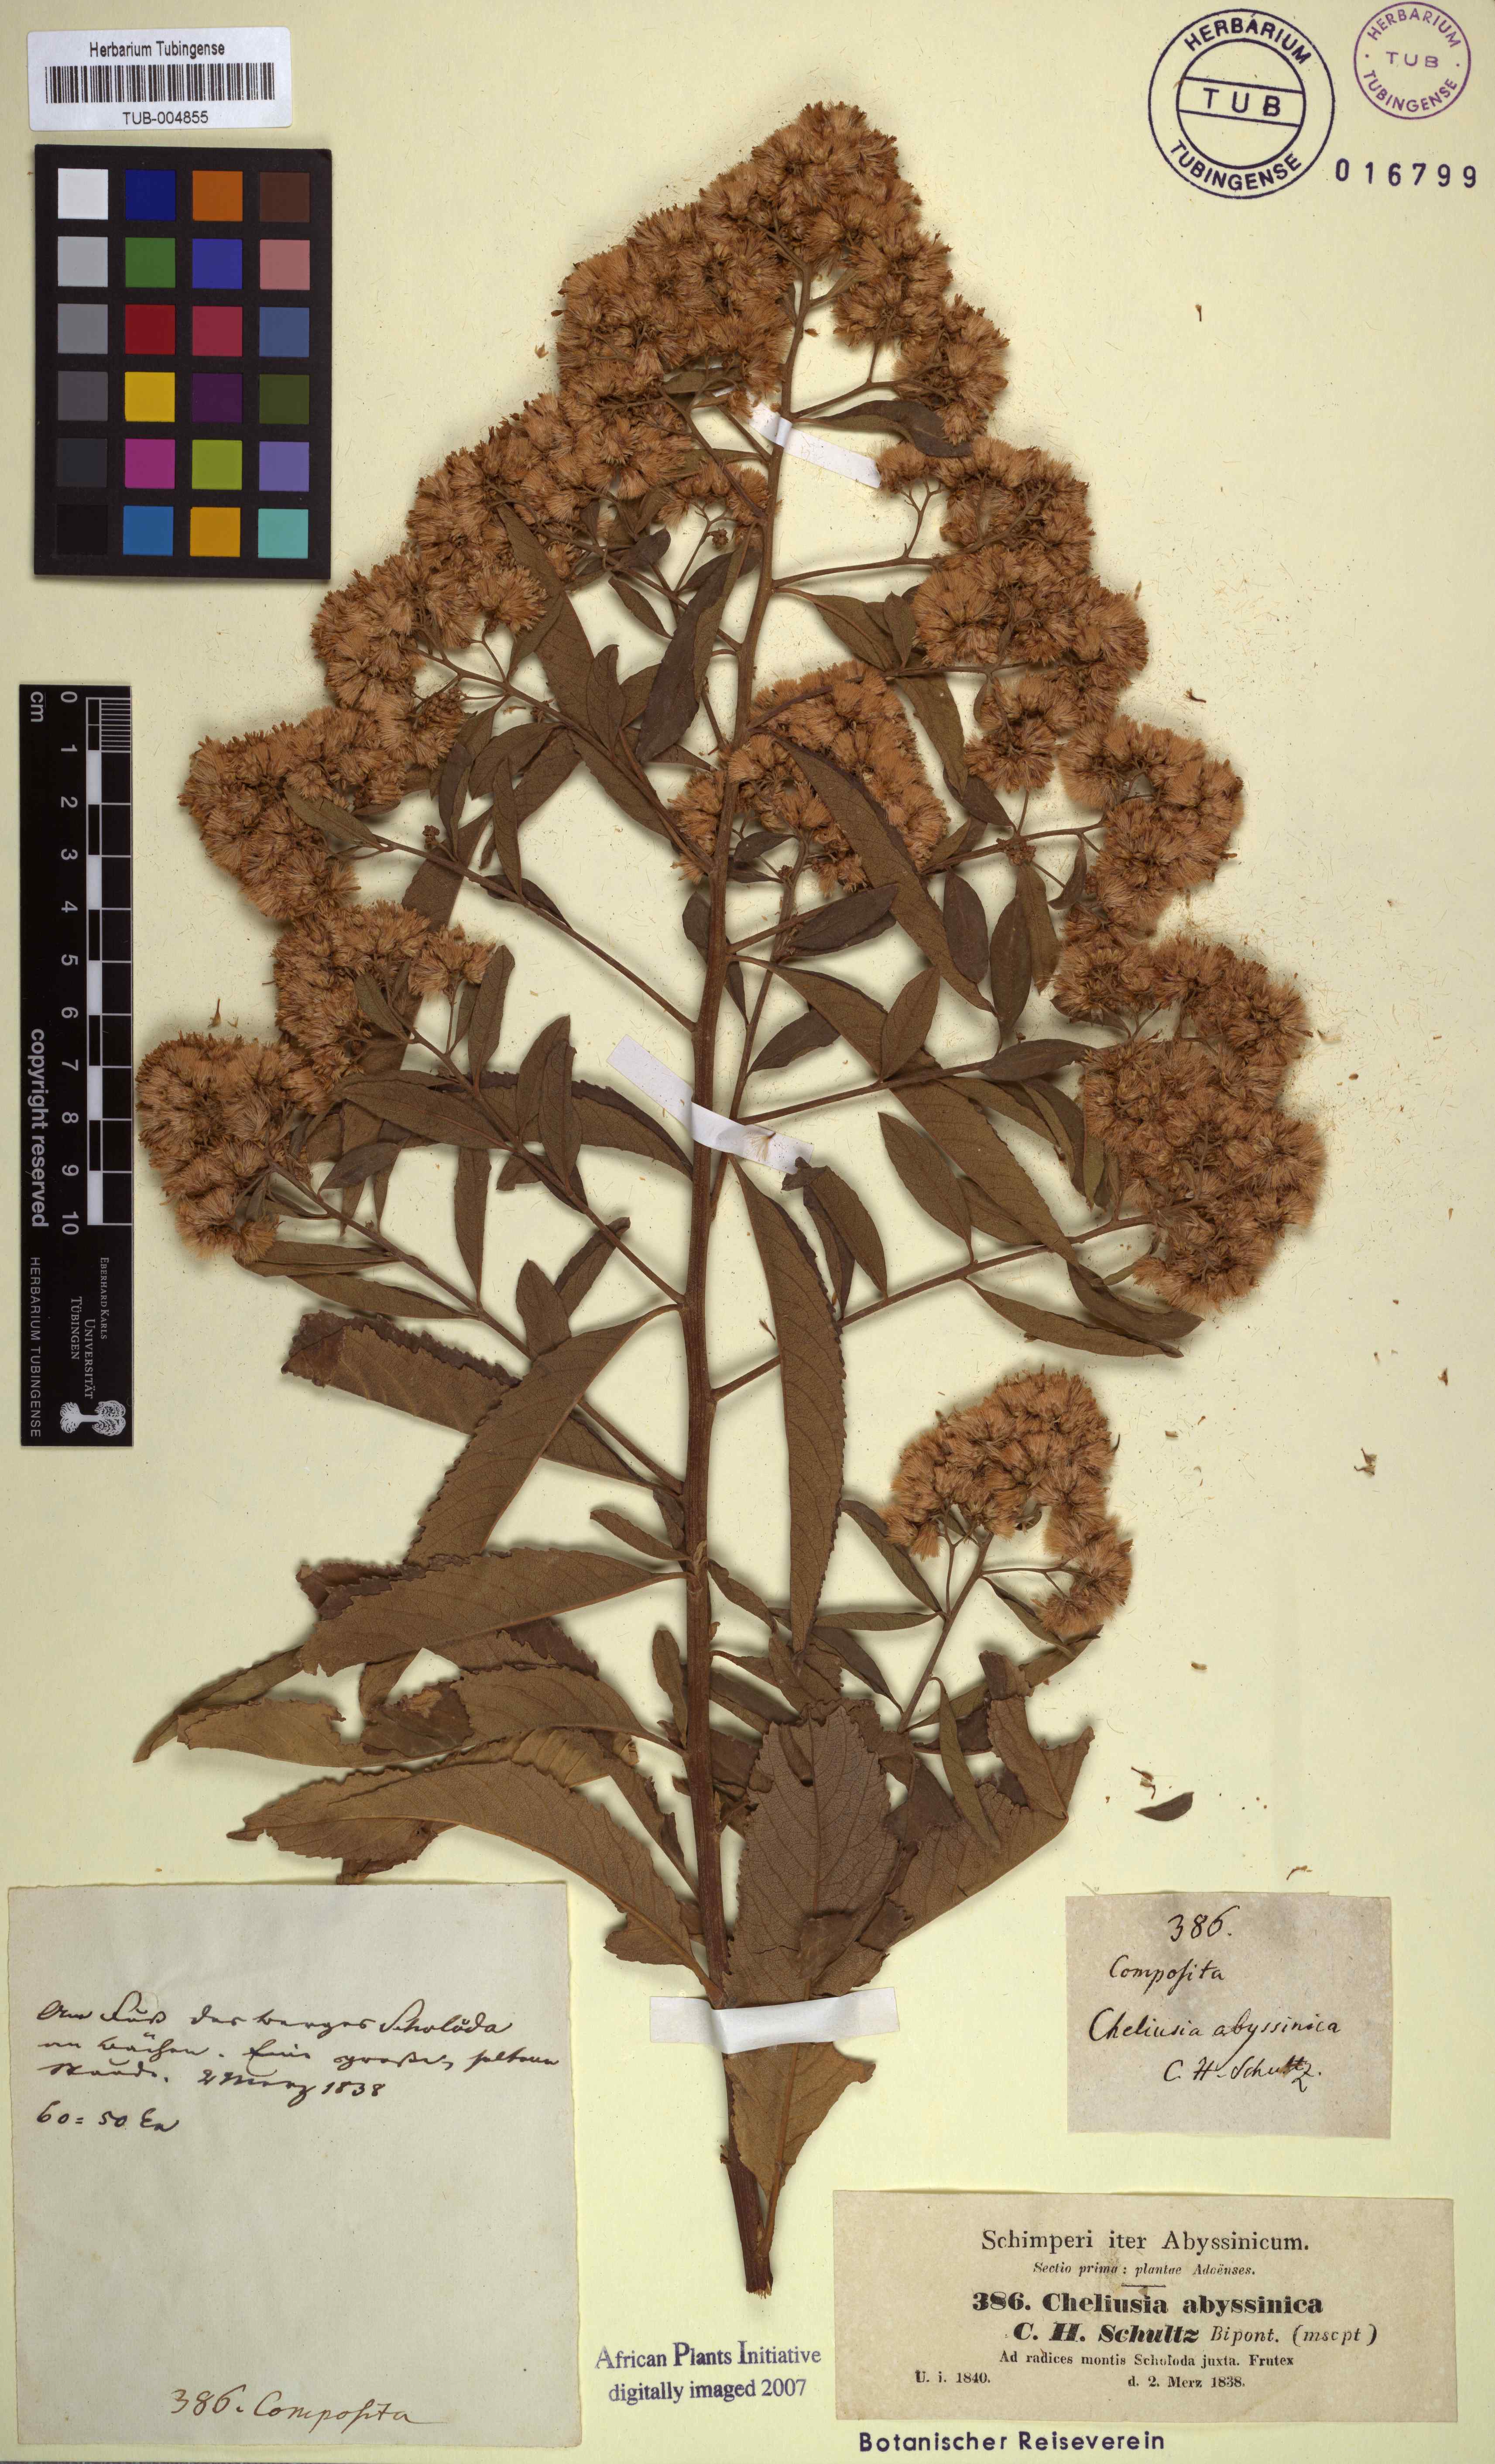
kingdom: Plantae
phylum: Tracheophyta
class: Magnoliopsida
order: Asterales
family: Asteraceae
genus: Gymnanthemum
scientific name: Gymnanthemum amygdalinum
